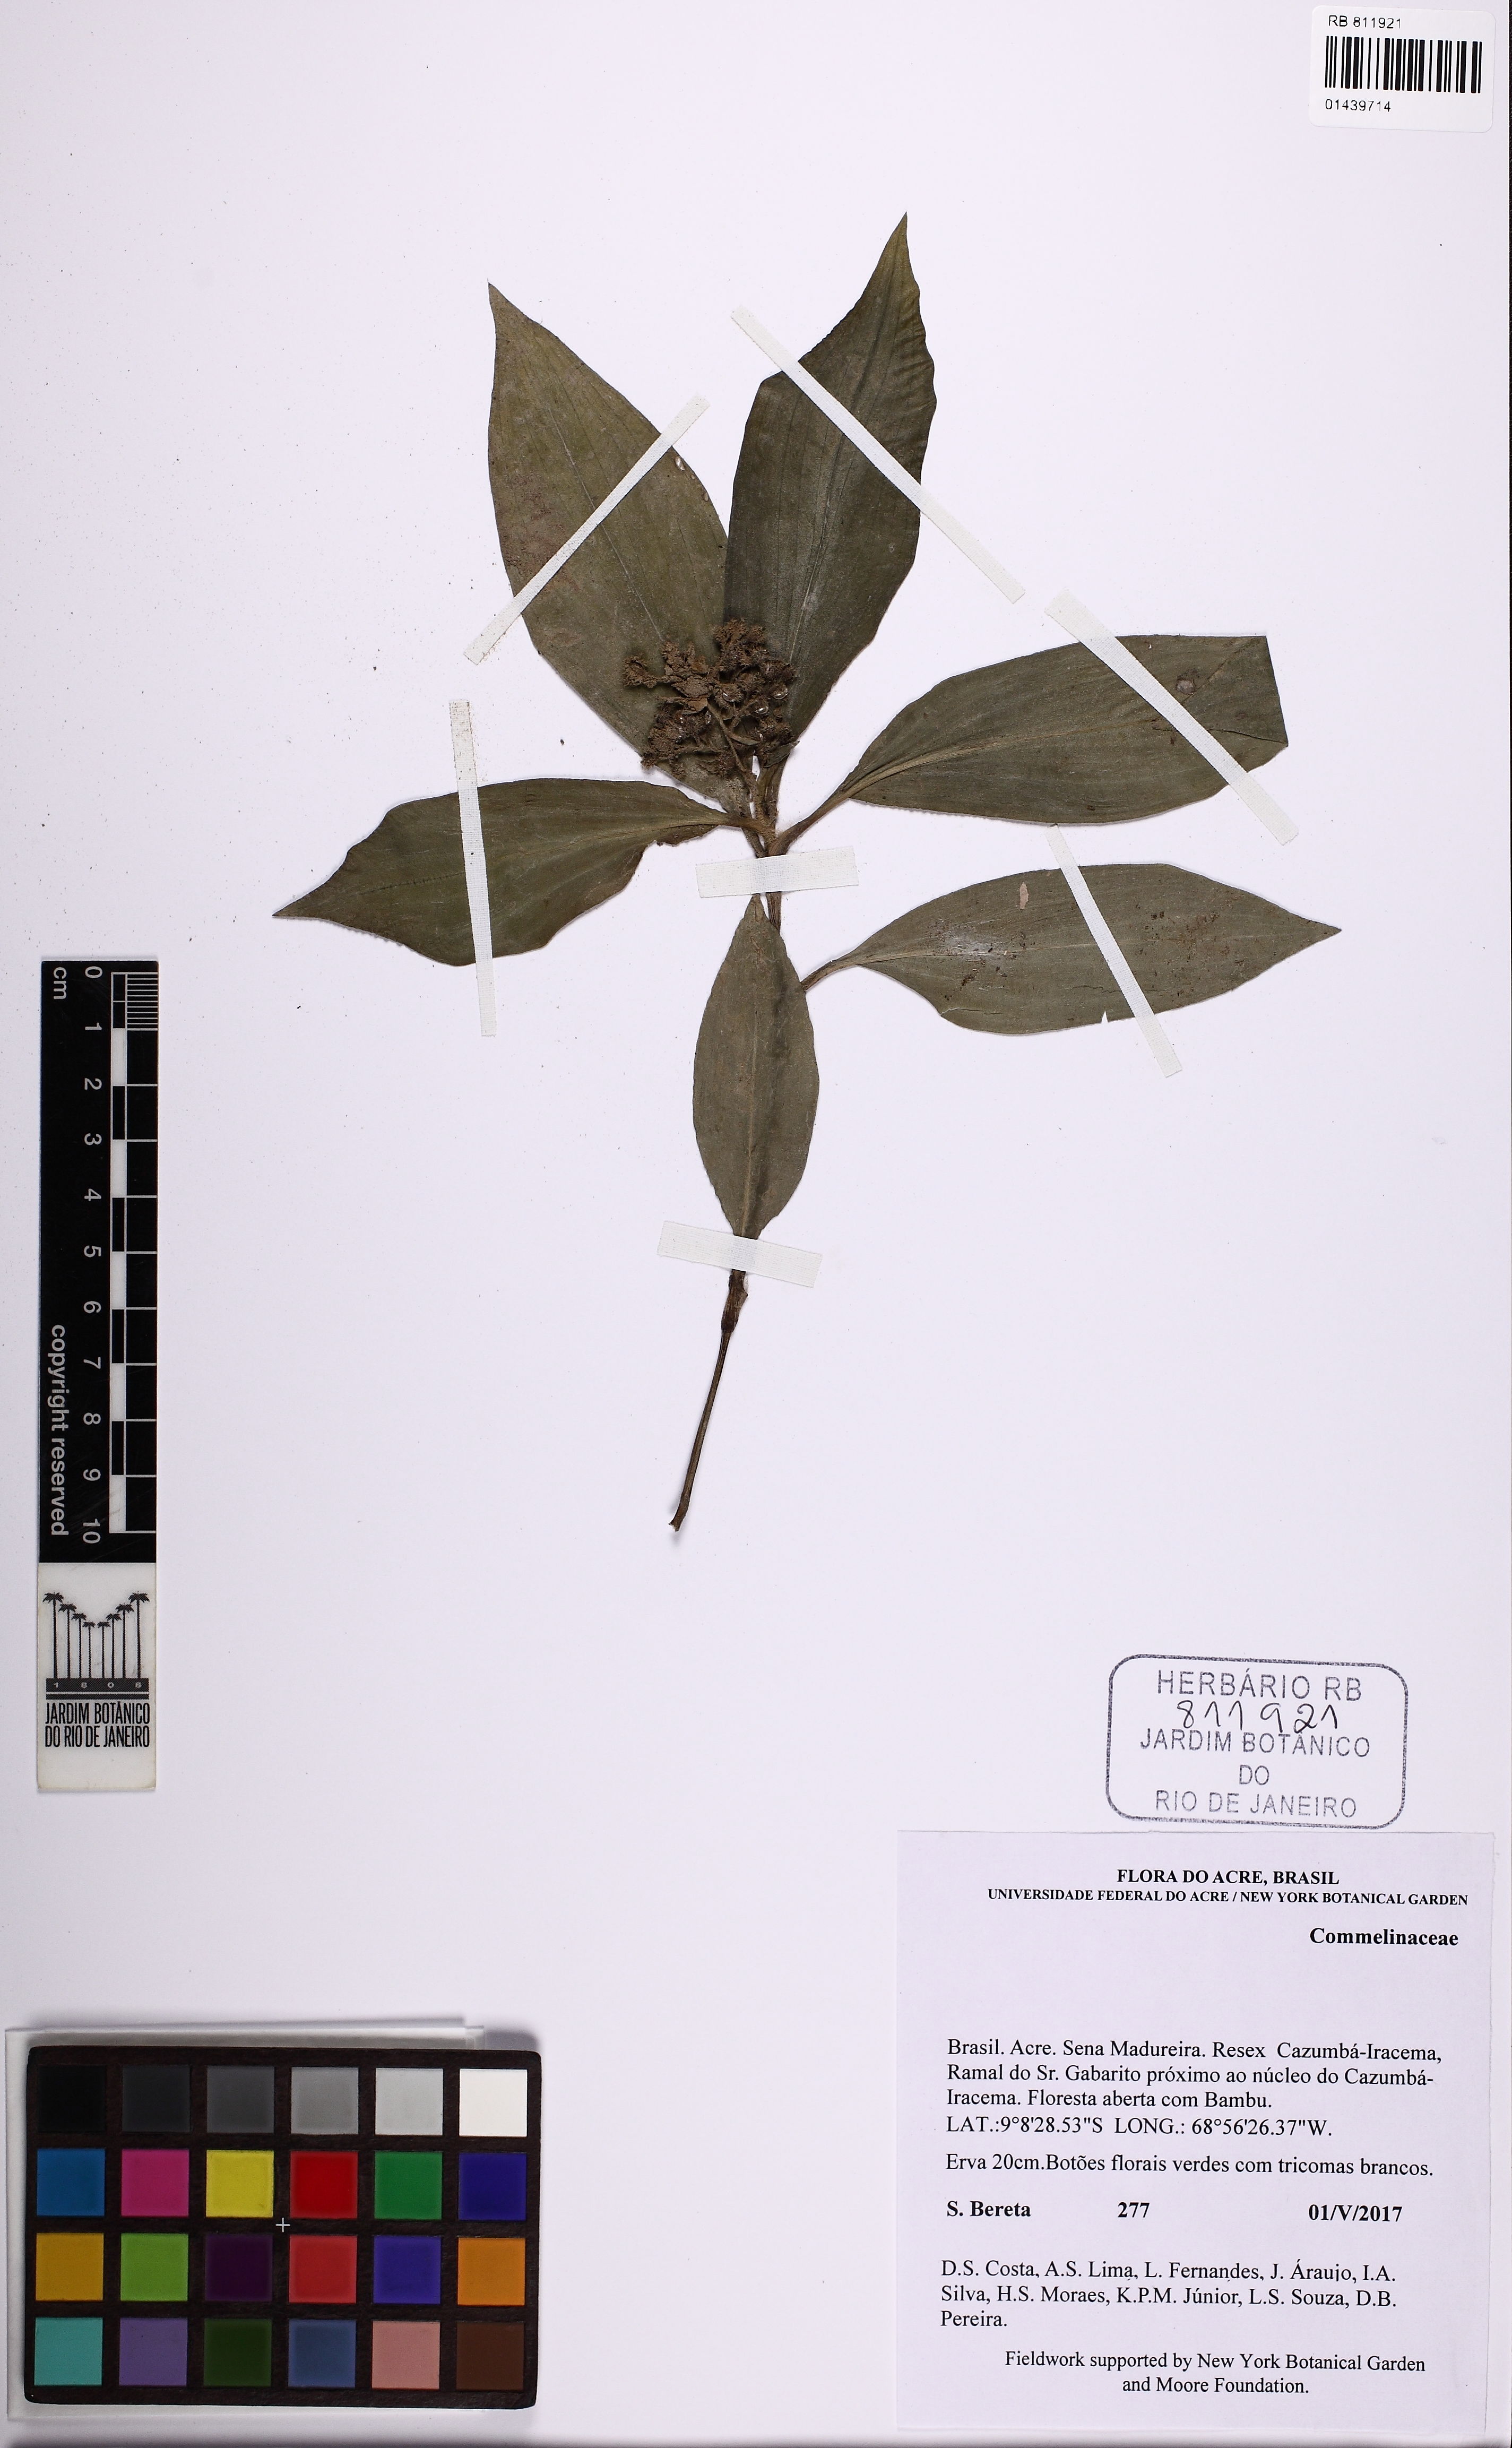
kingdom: Plantae
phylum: Tracheophyta
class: Liliopsida
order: Commelinales
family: Commelinaceae
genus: Floscopa
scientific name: Floscopa
